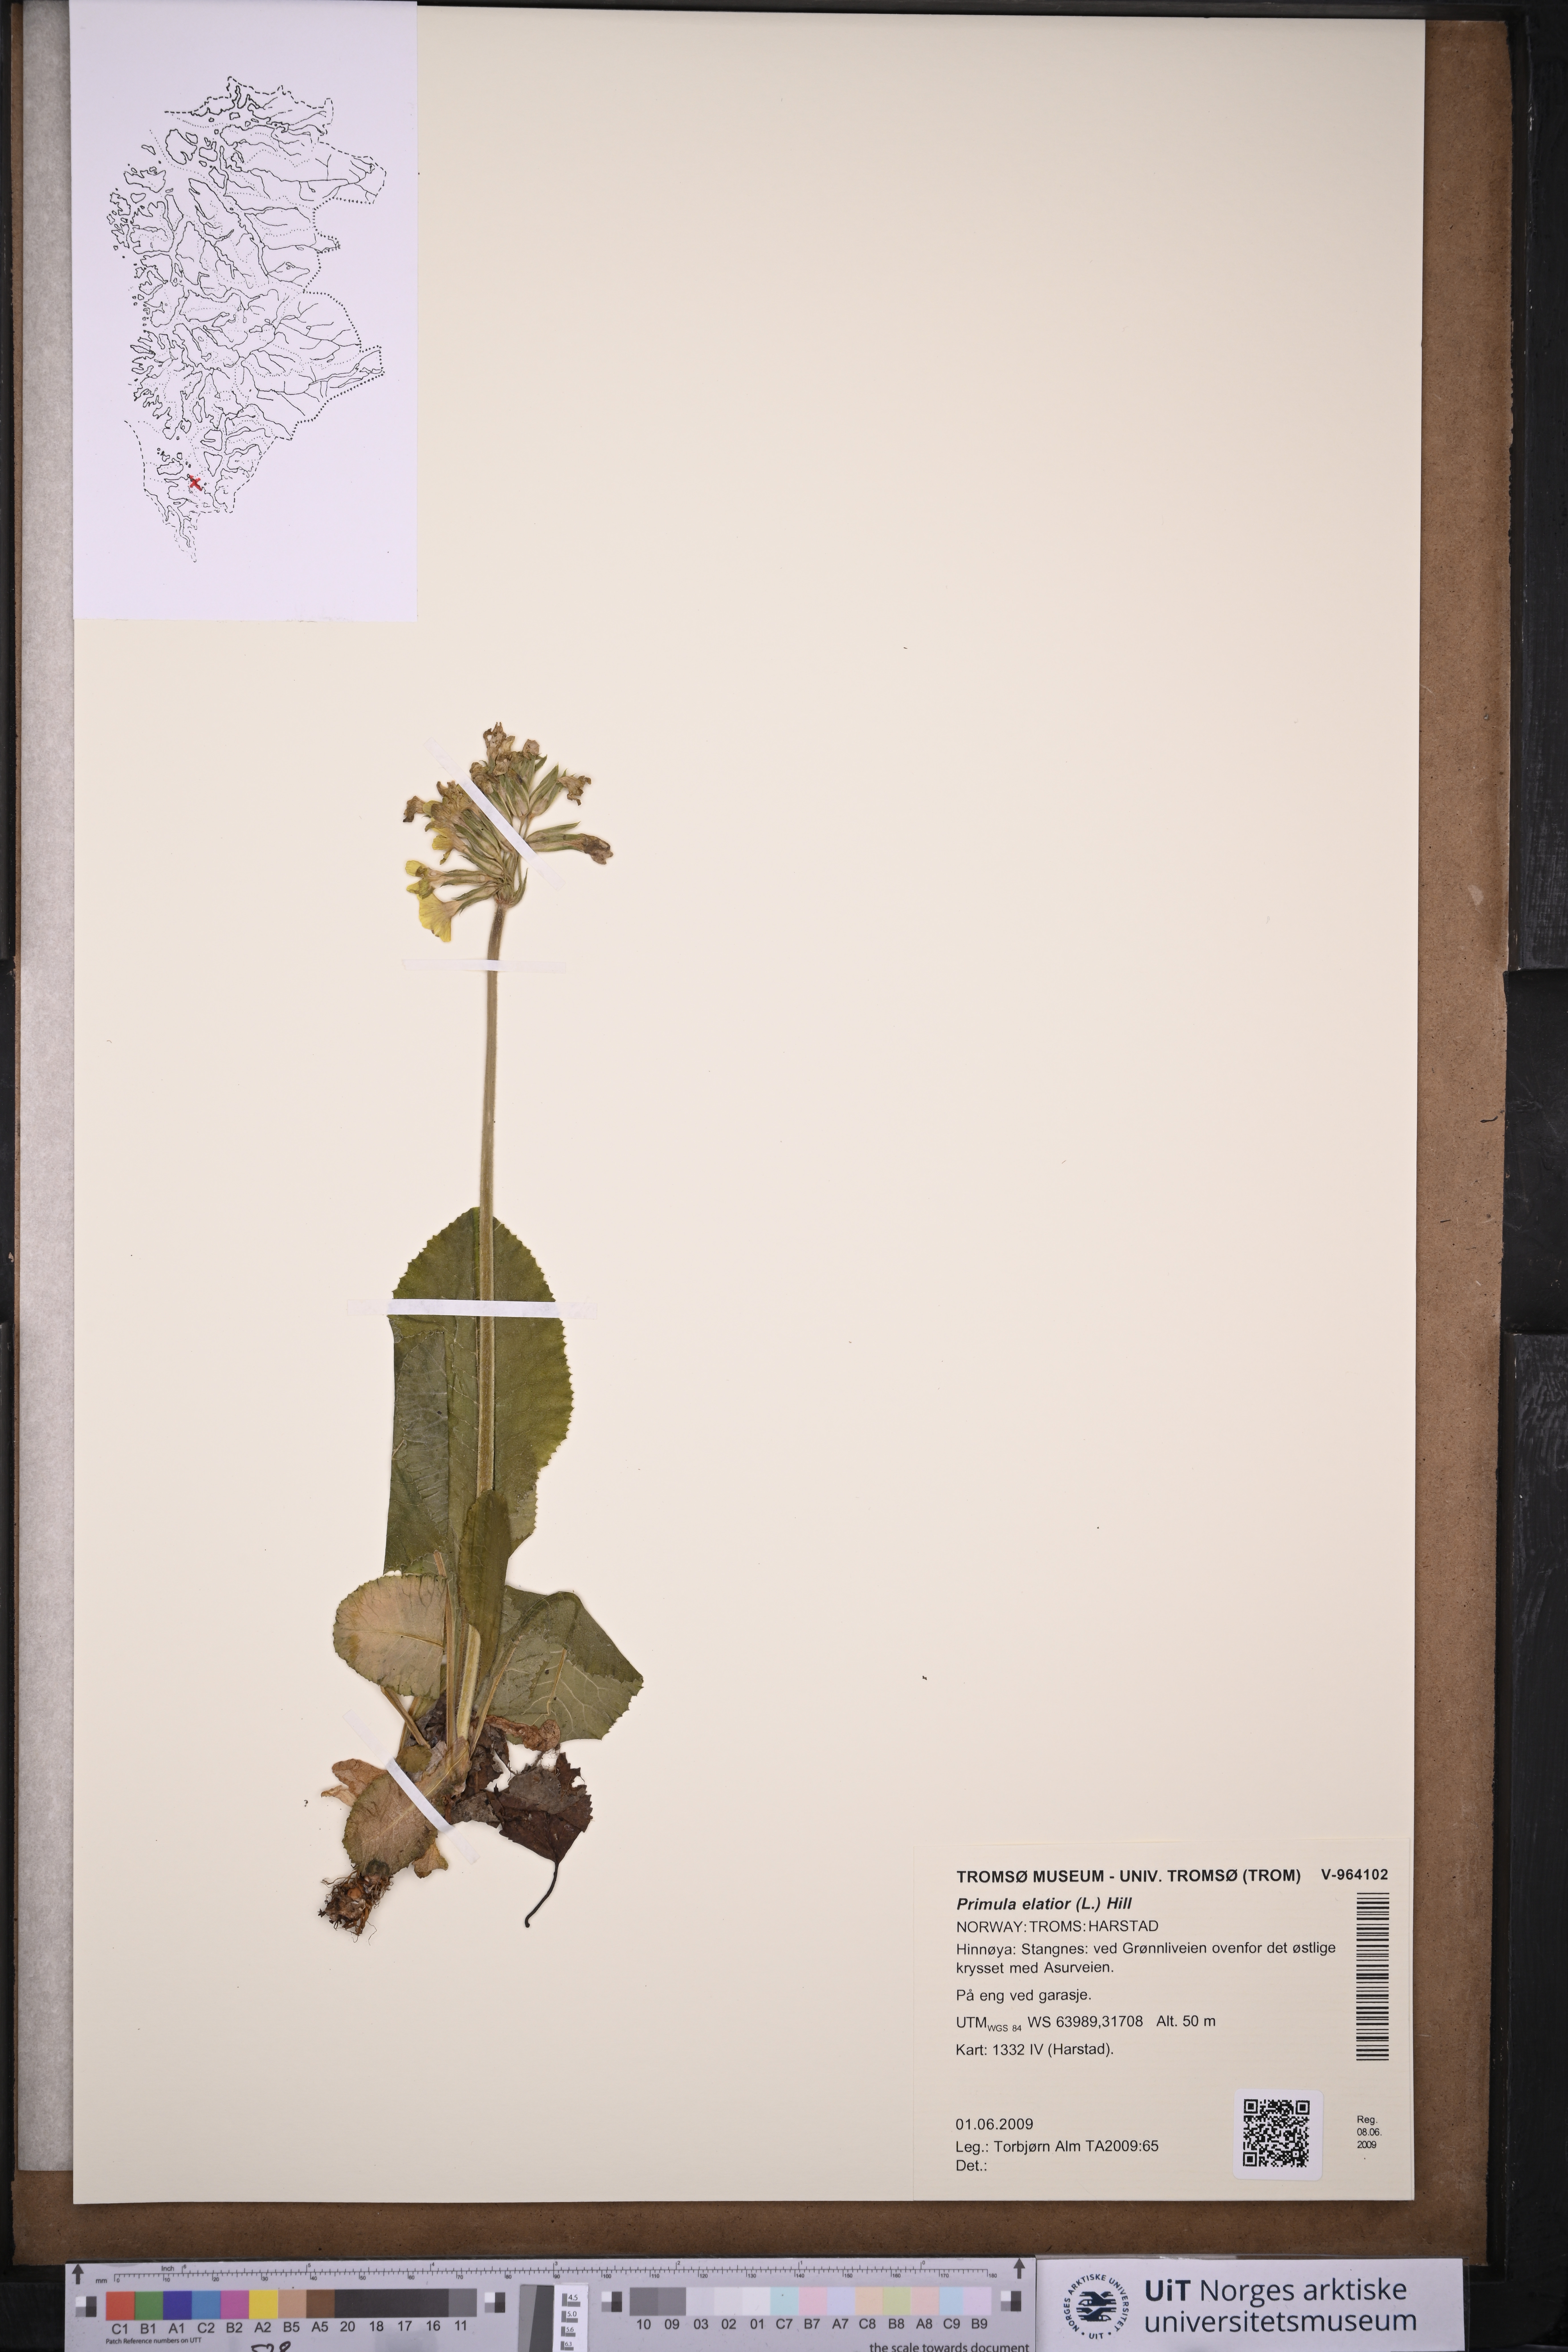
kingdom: Plantae
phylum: Tracheophyta
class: Magnoliopsida
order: Ericales
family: Primulaceae
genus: Primula
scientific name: Primula elatior
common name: Oxlip
